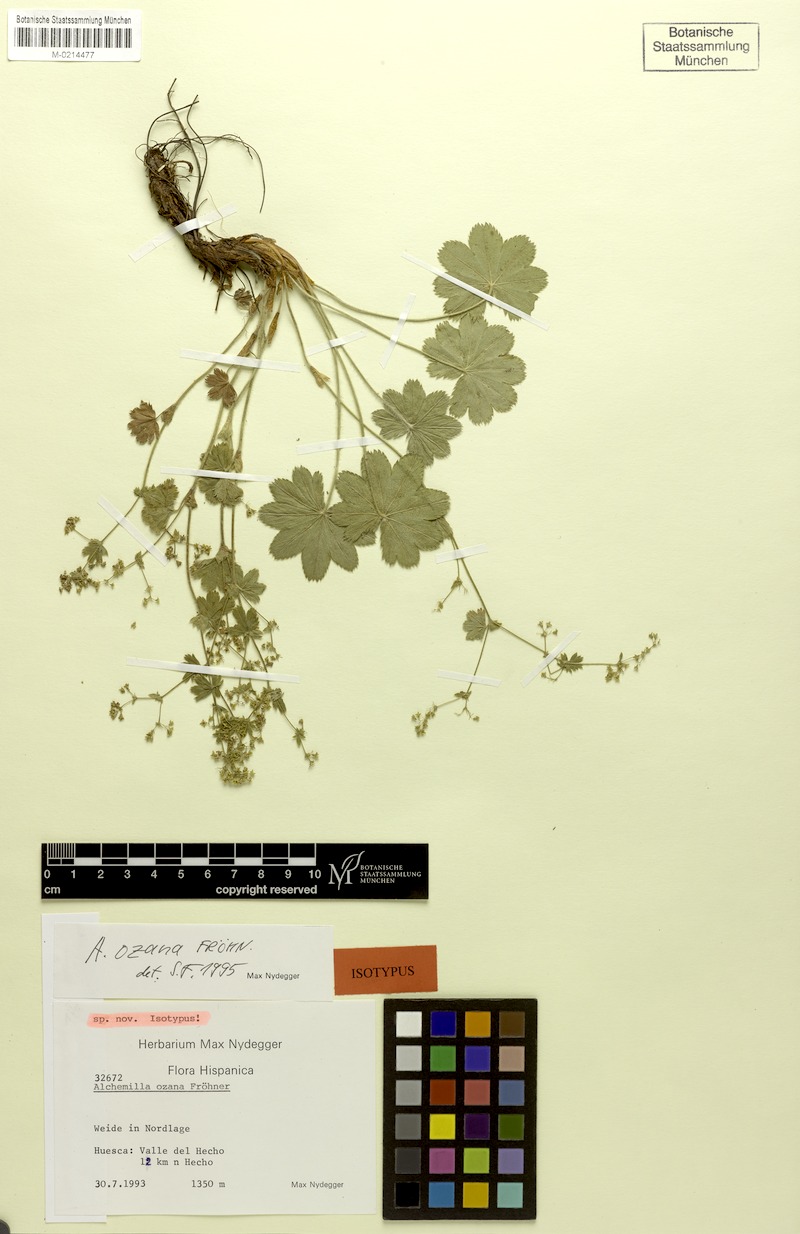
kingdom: Plantae
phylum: Tracheophyta
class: Magnoliopsida
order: Rosales
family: Rosaceae
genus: Alchemilla
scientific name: Alchemilla ozana
